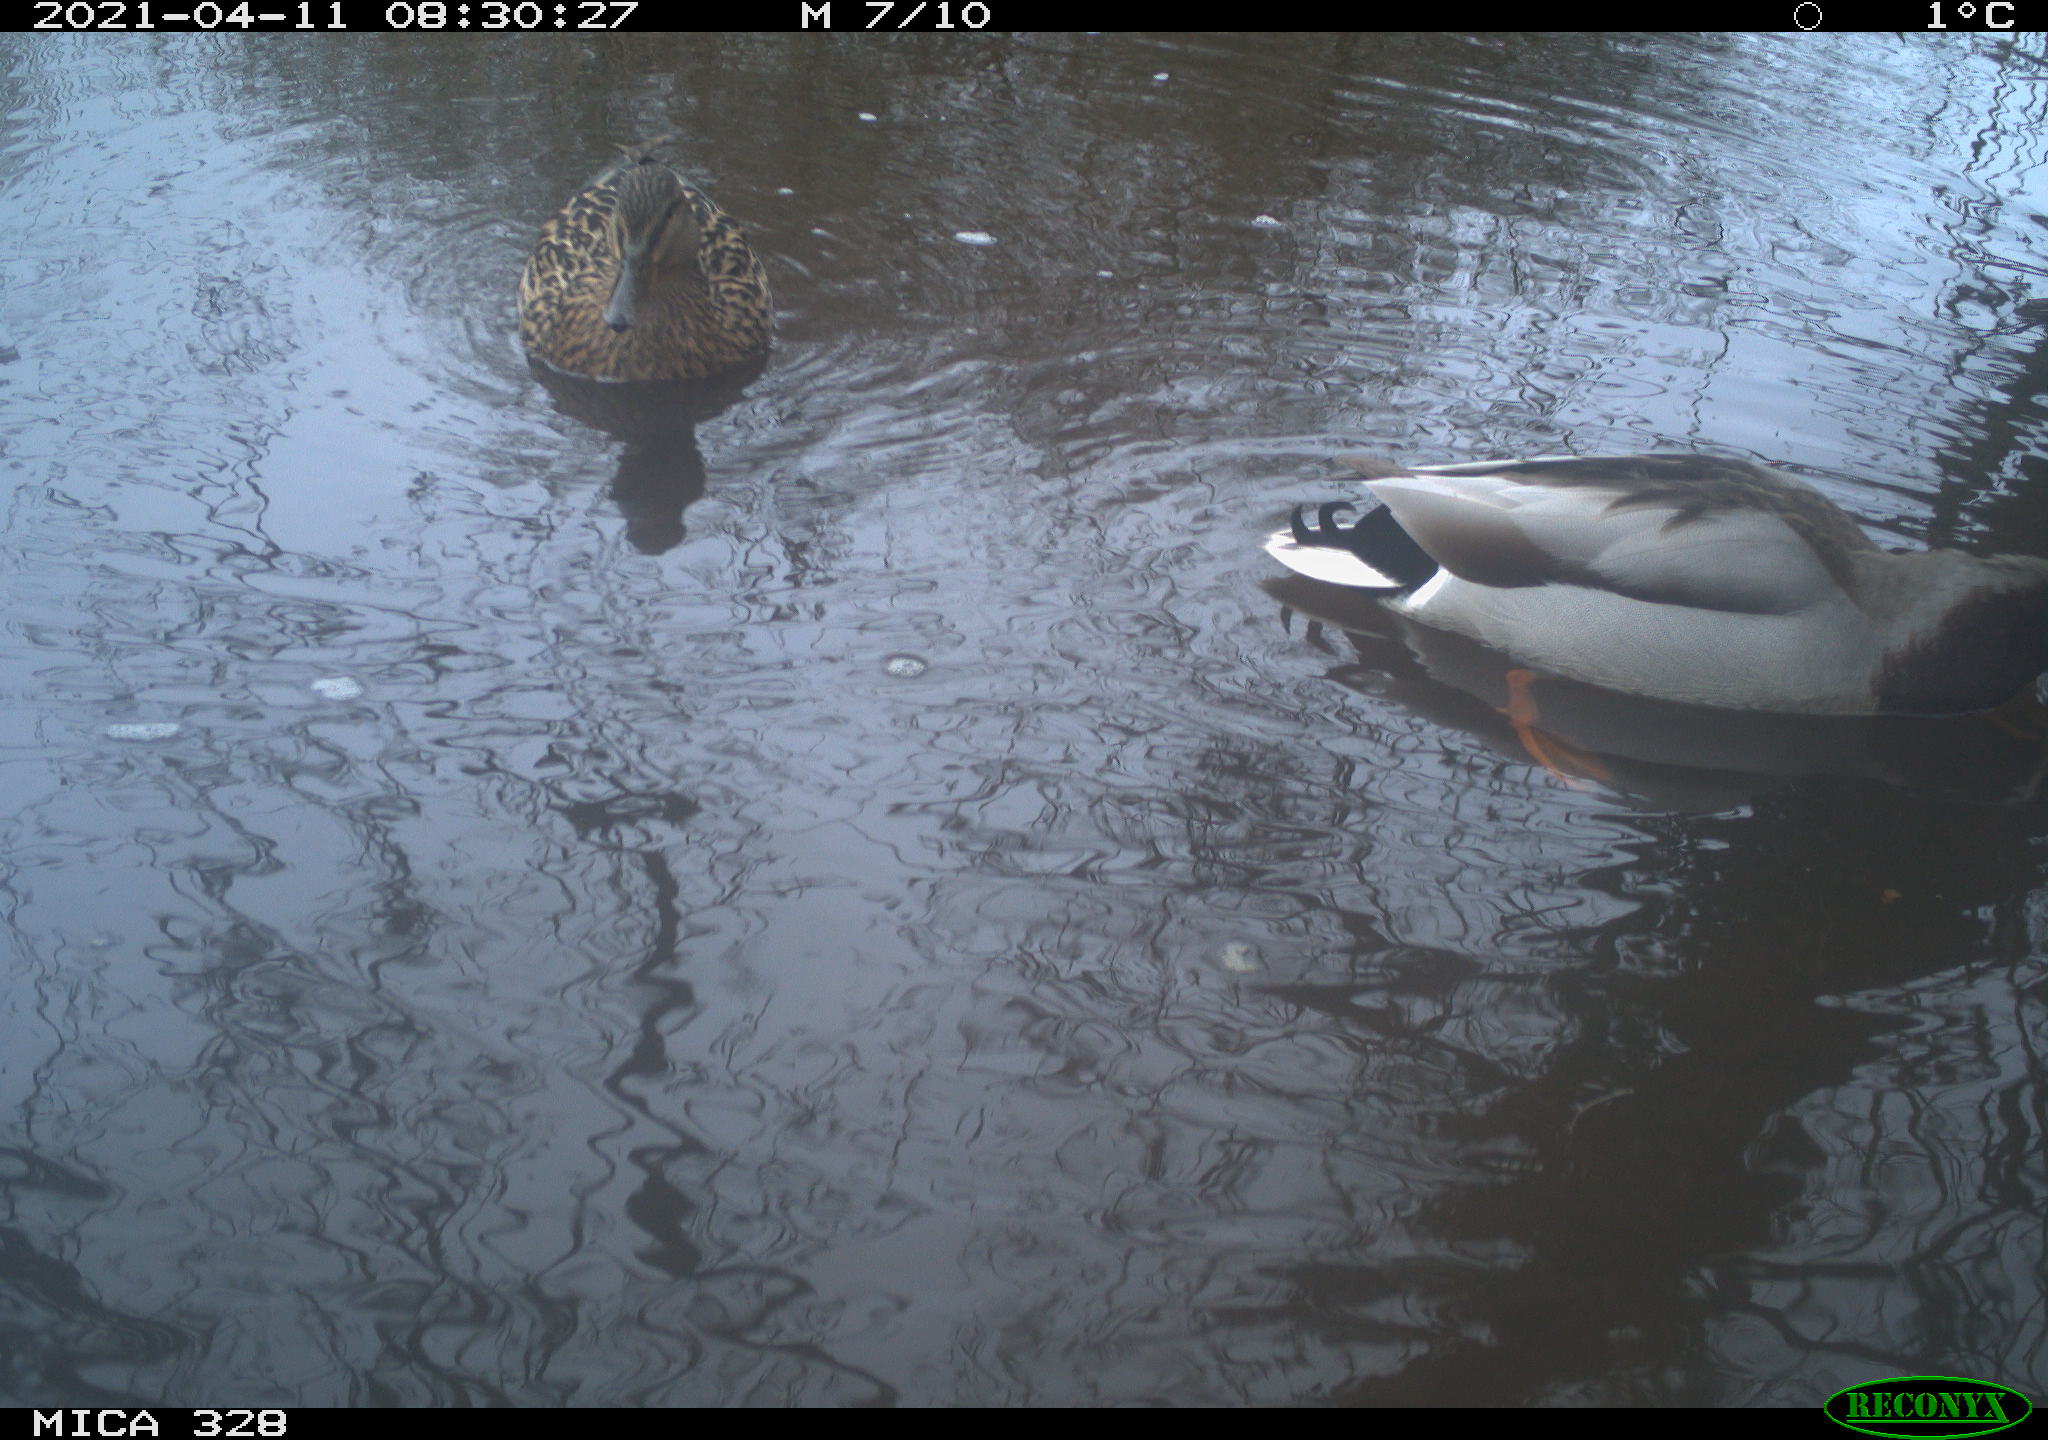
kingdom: Animalia
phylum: Chordata
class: Aves
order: Anseriformes
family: Anatidae
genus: Anas
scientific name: Anas platyrhynchos
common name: Mallard
